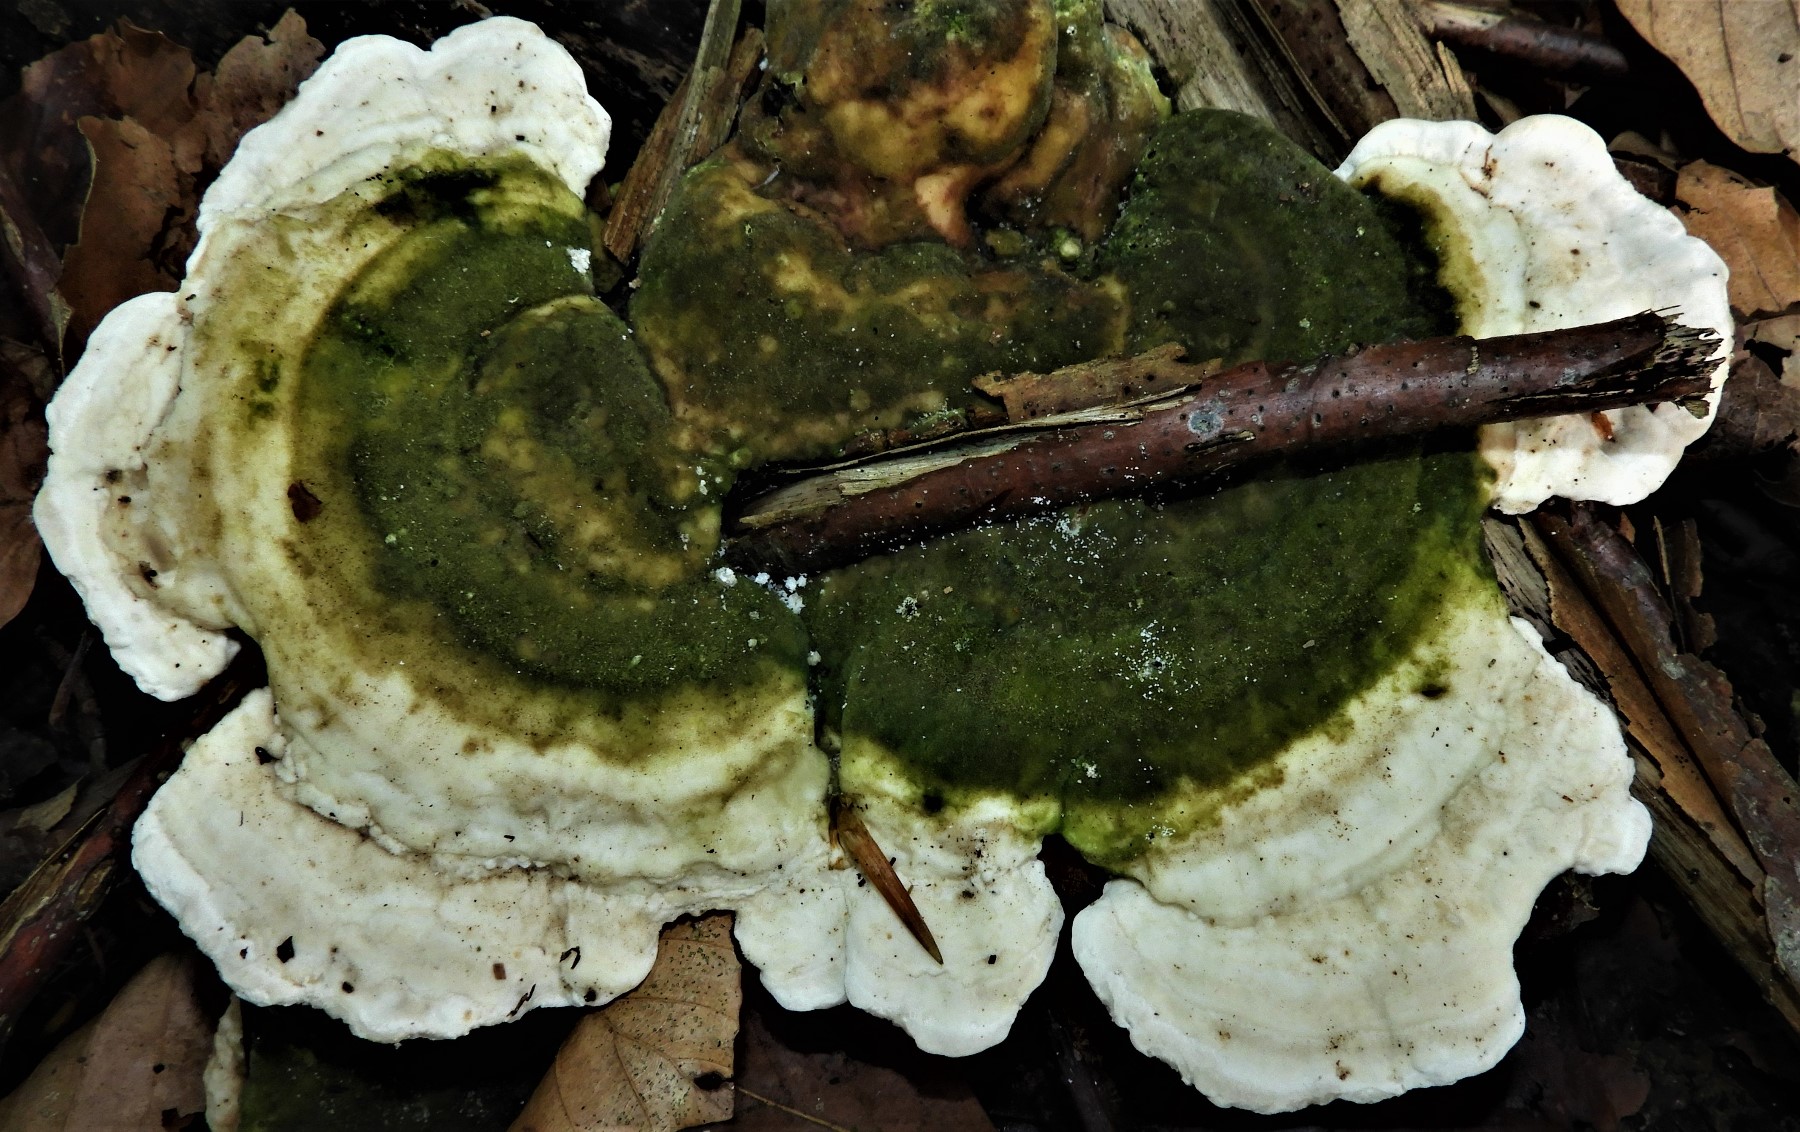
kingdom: Fungi
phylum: Basidiomycota
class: Agaricomycetes
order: Polyporales
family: Polyporaceae
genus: Trametes
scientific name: Trametes gibbosa
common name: puklet læderporesvamp
